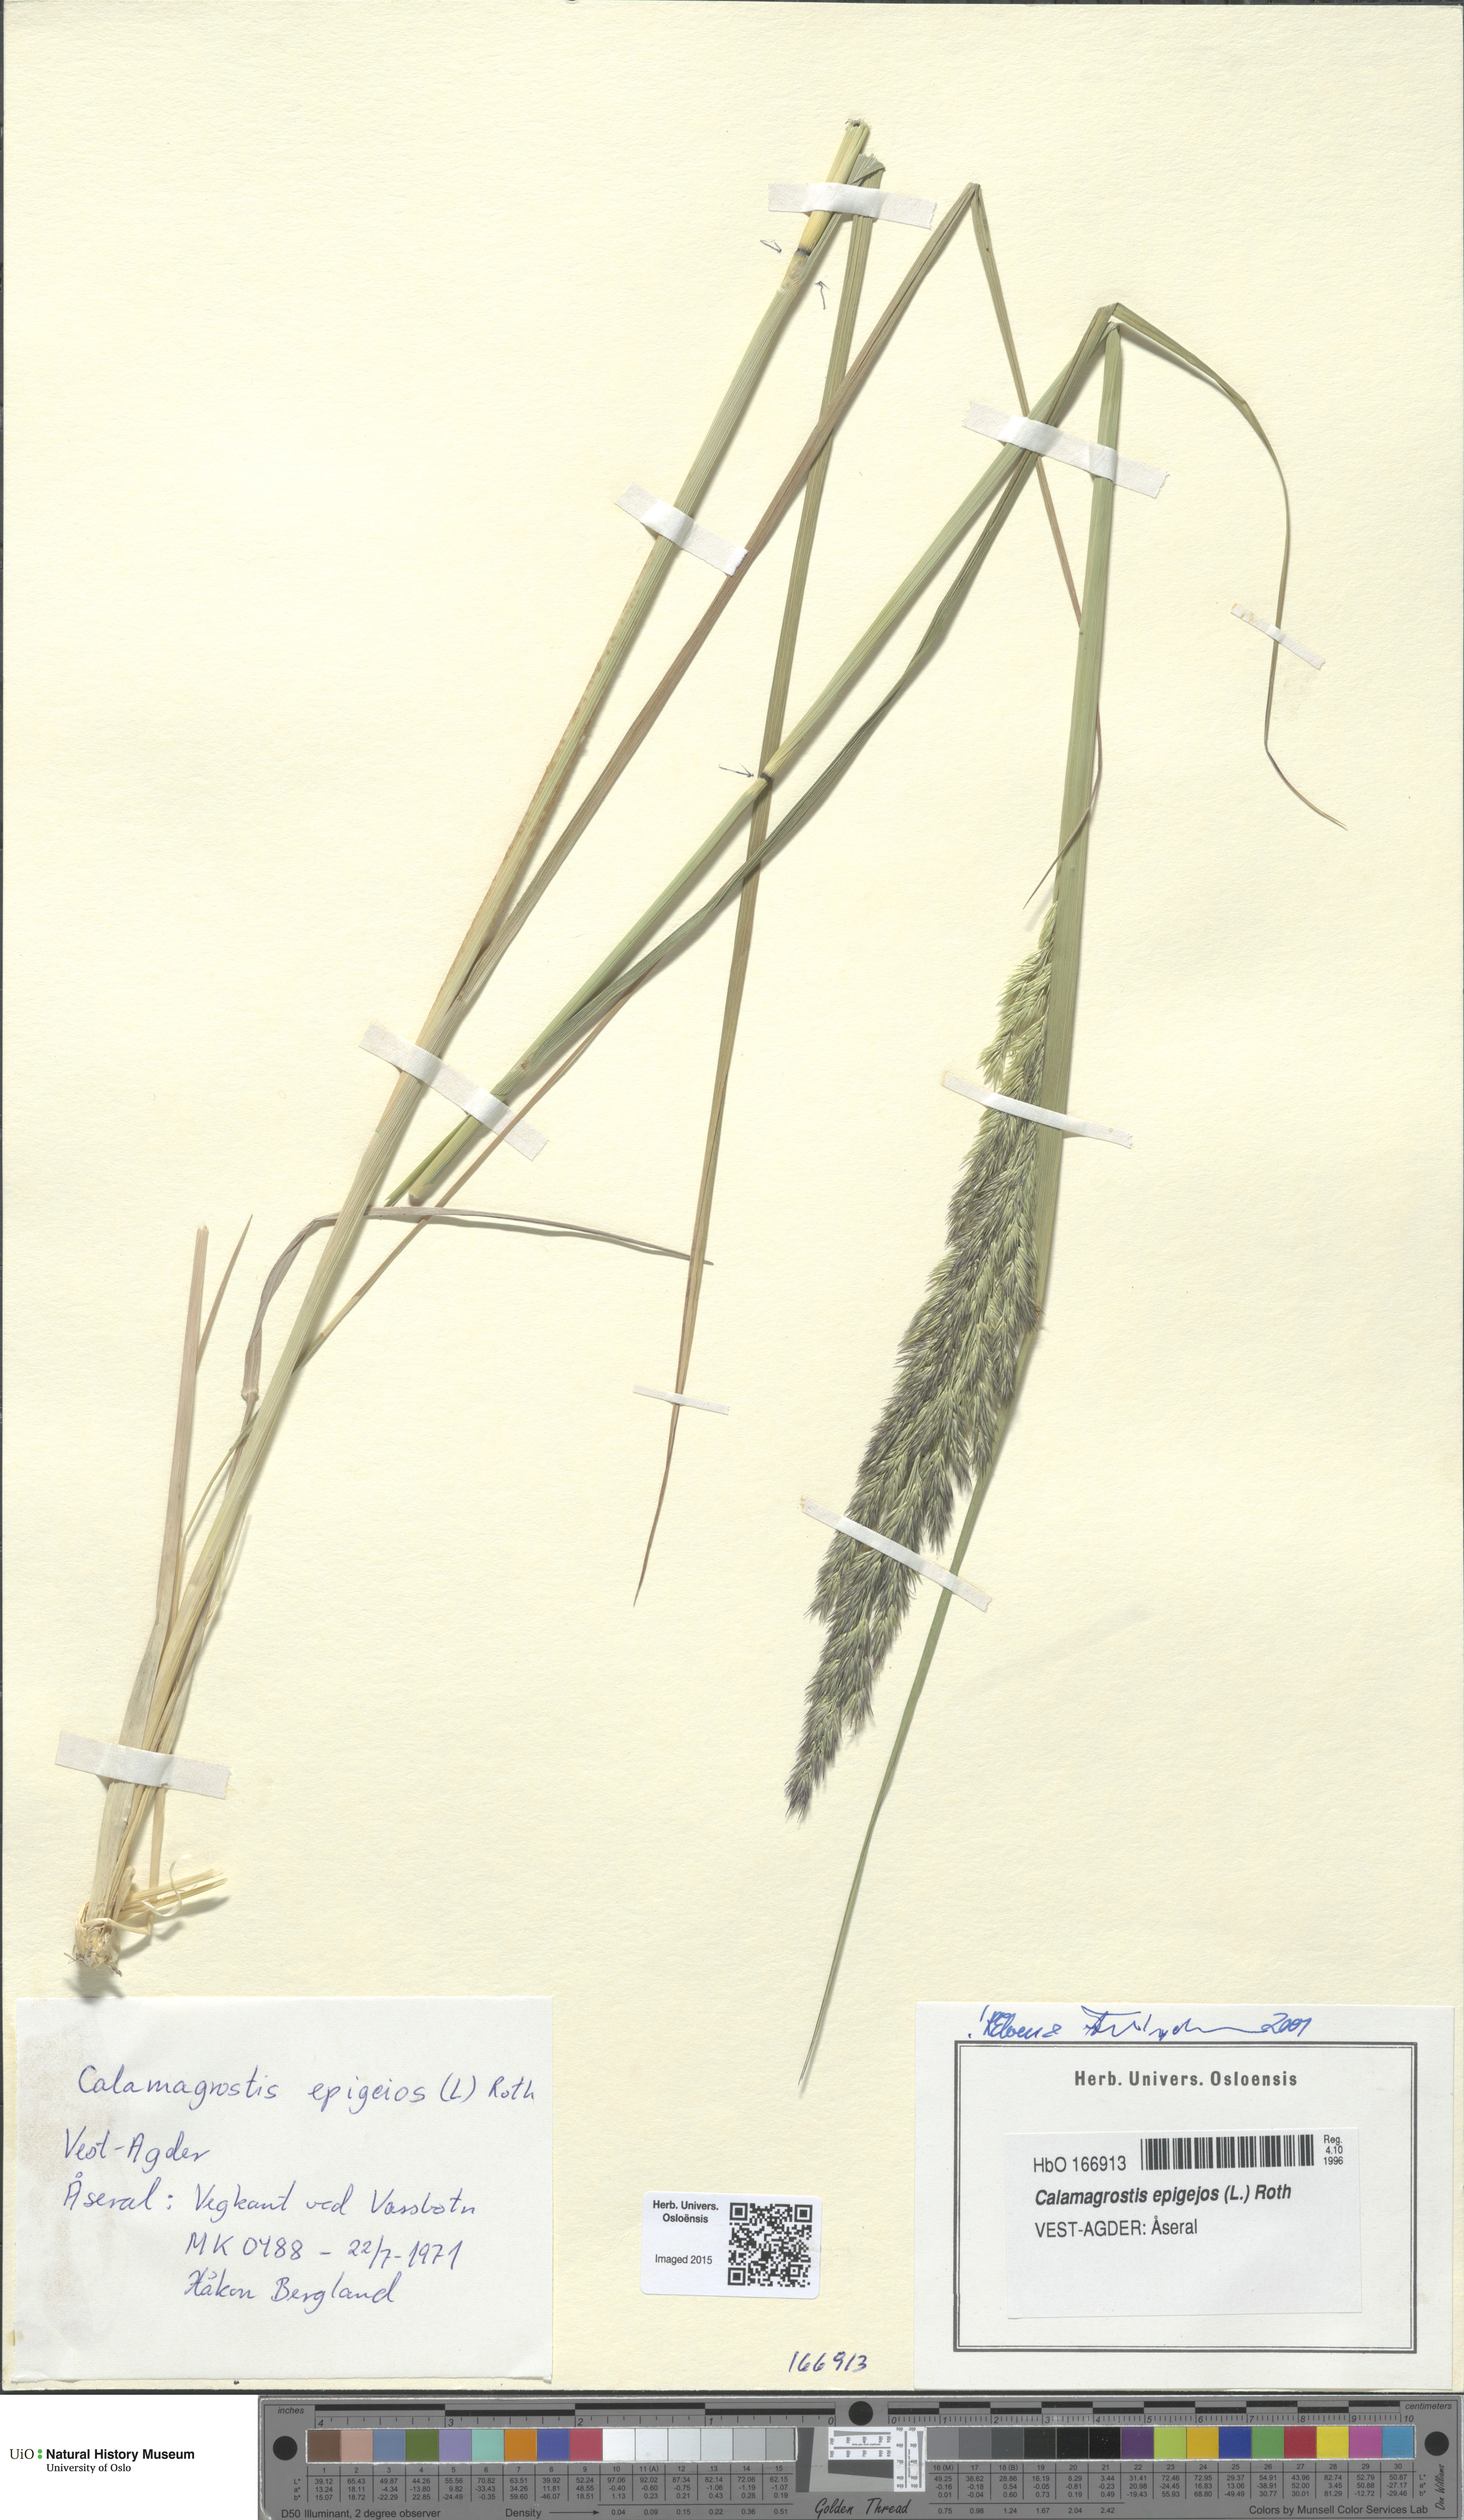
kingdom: Plantae
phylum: Tracheophyta
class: Liliopsida
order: Poales
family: Poaceae
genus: Calamagrostis
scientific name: Calamagrostis epigejos
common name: Wood small-reed
